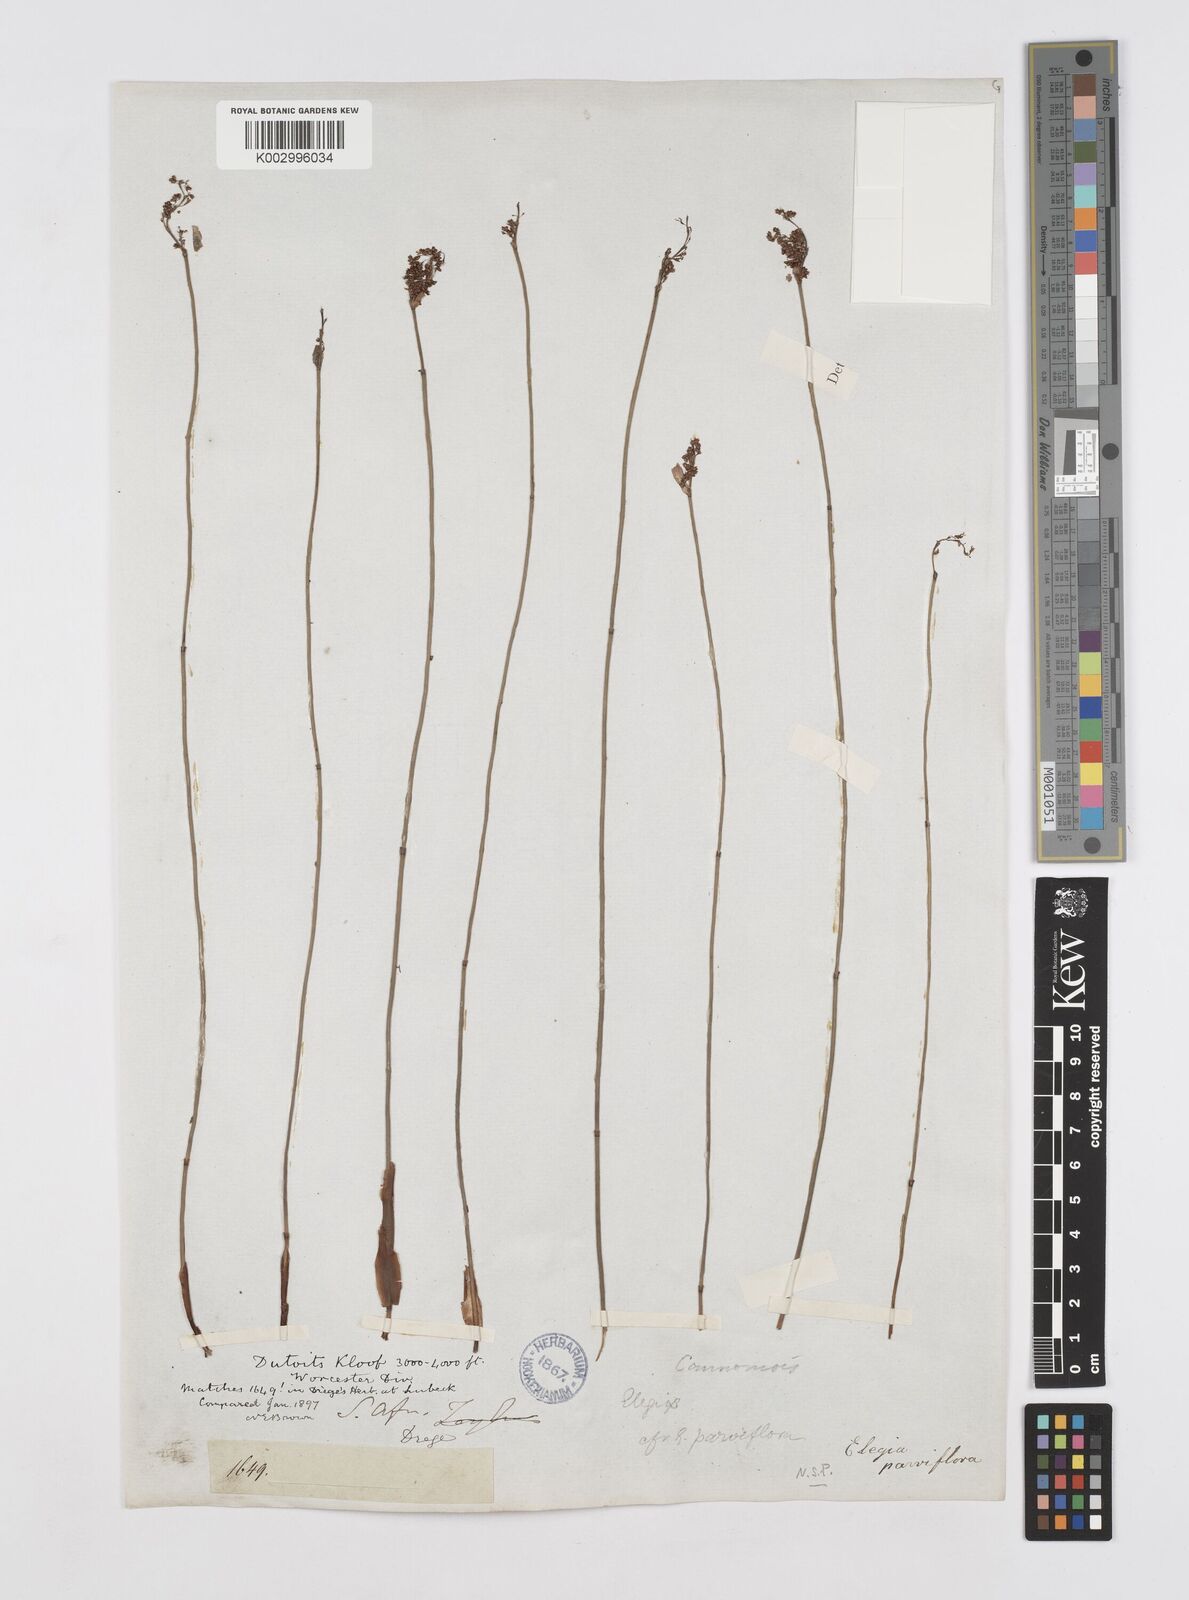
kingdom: Plantae
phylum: Tracheophyta
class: Liliopsida
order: Poales
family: Restionaceae
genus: Cannomois
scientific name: Cannomois parviflora
